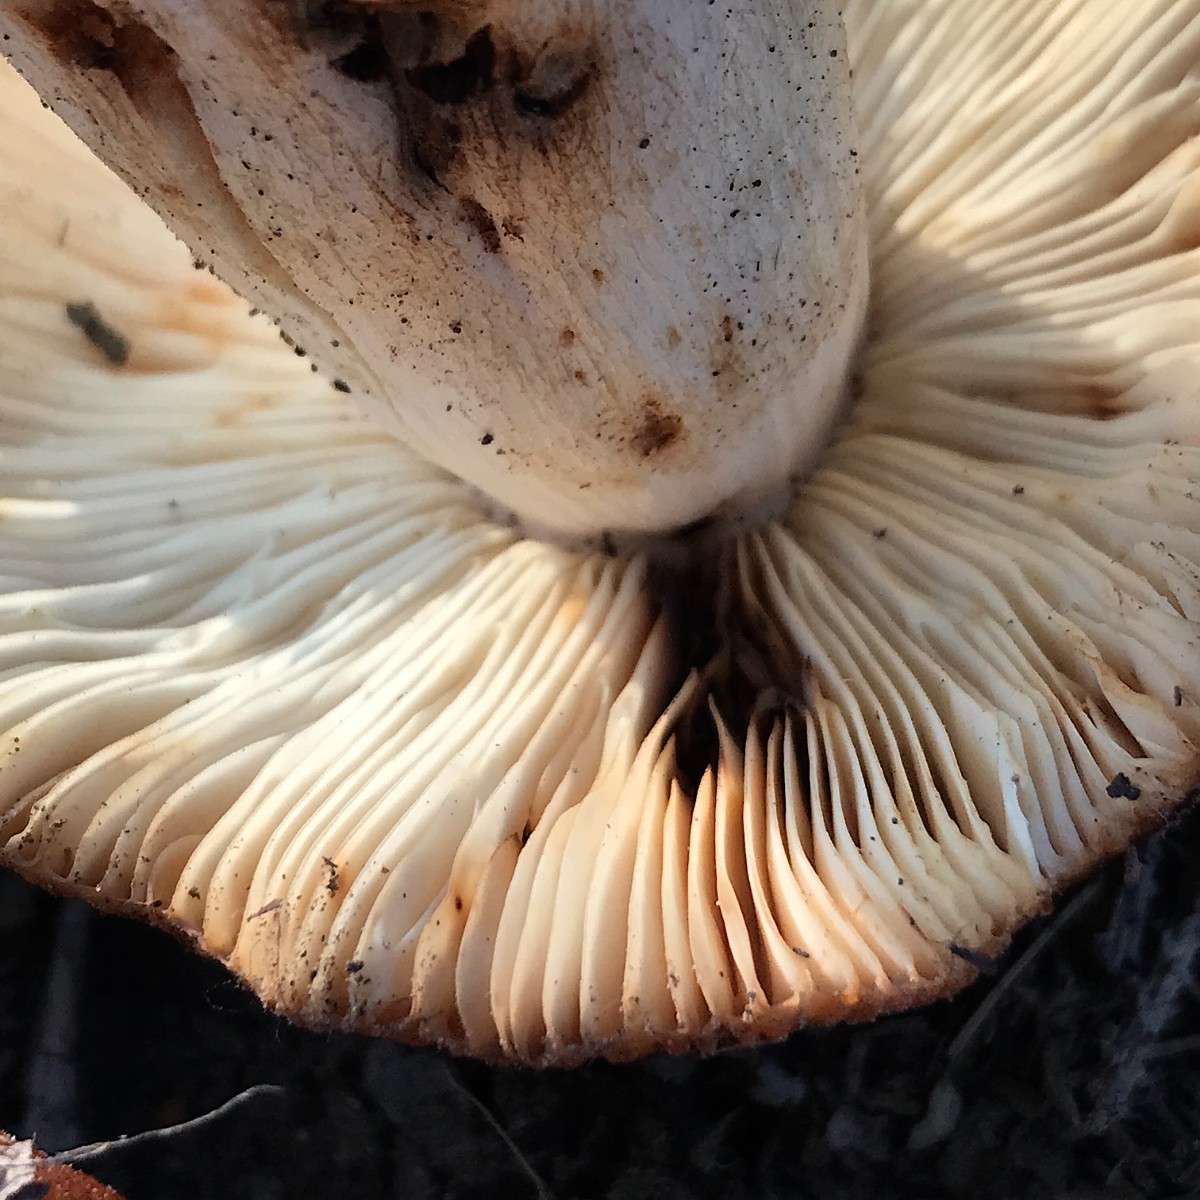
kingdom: Fungi
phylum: Basidiomycota
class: Agaricomycetes
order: Russulales
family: Russulaceae
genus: Russula
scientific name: Russula foetens
